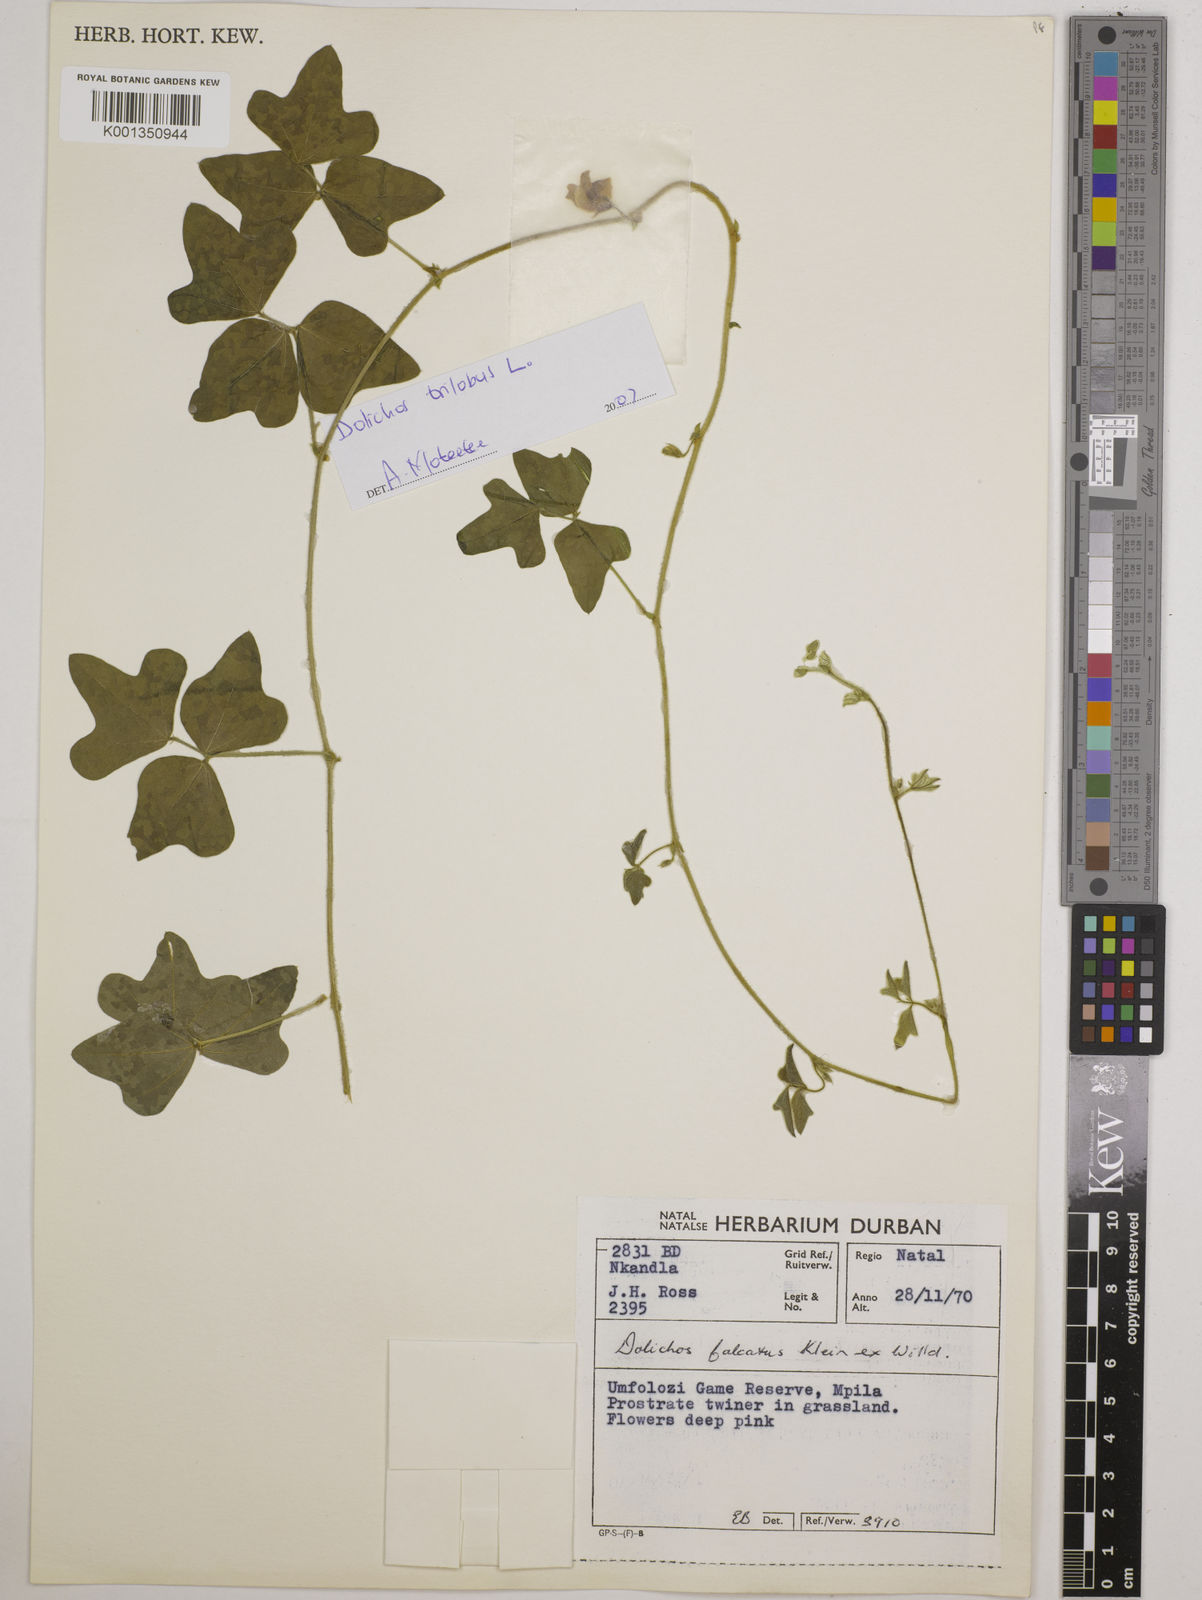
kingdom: Plantae
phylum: Tracheophyta
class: Magnoliopsida
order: Fabales
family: Fabaceae
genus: Dolichos
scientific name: Dolichos
